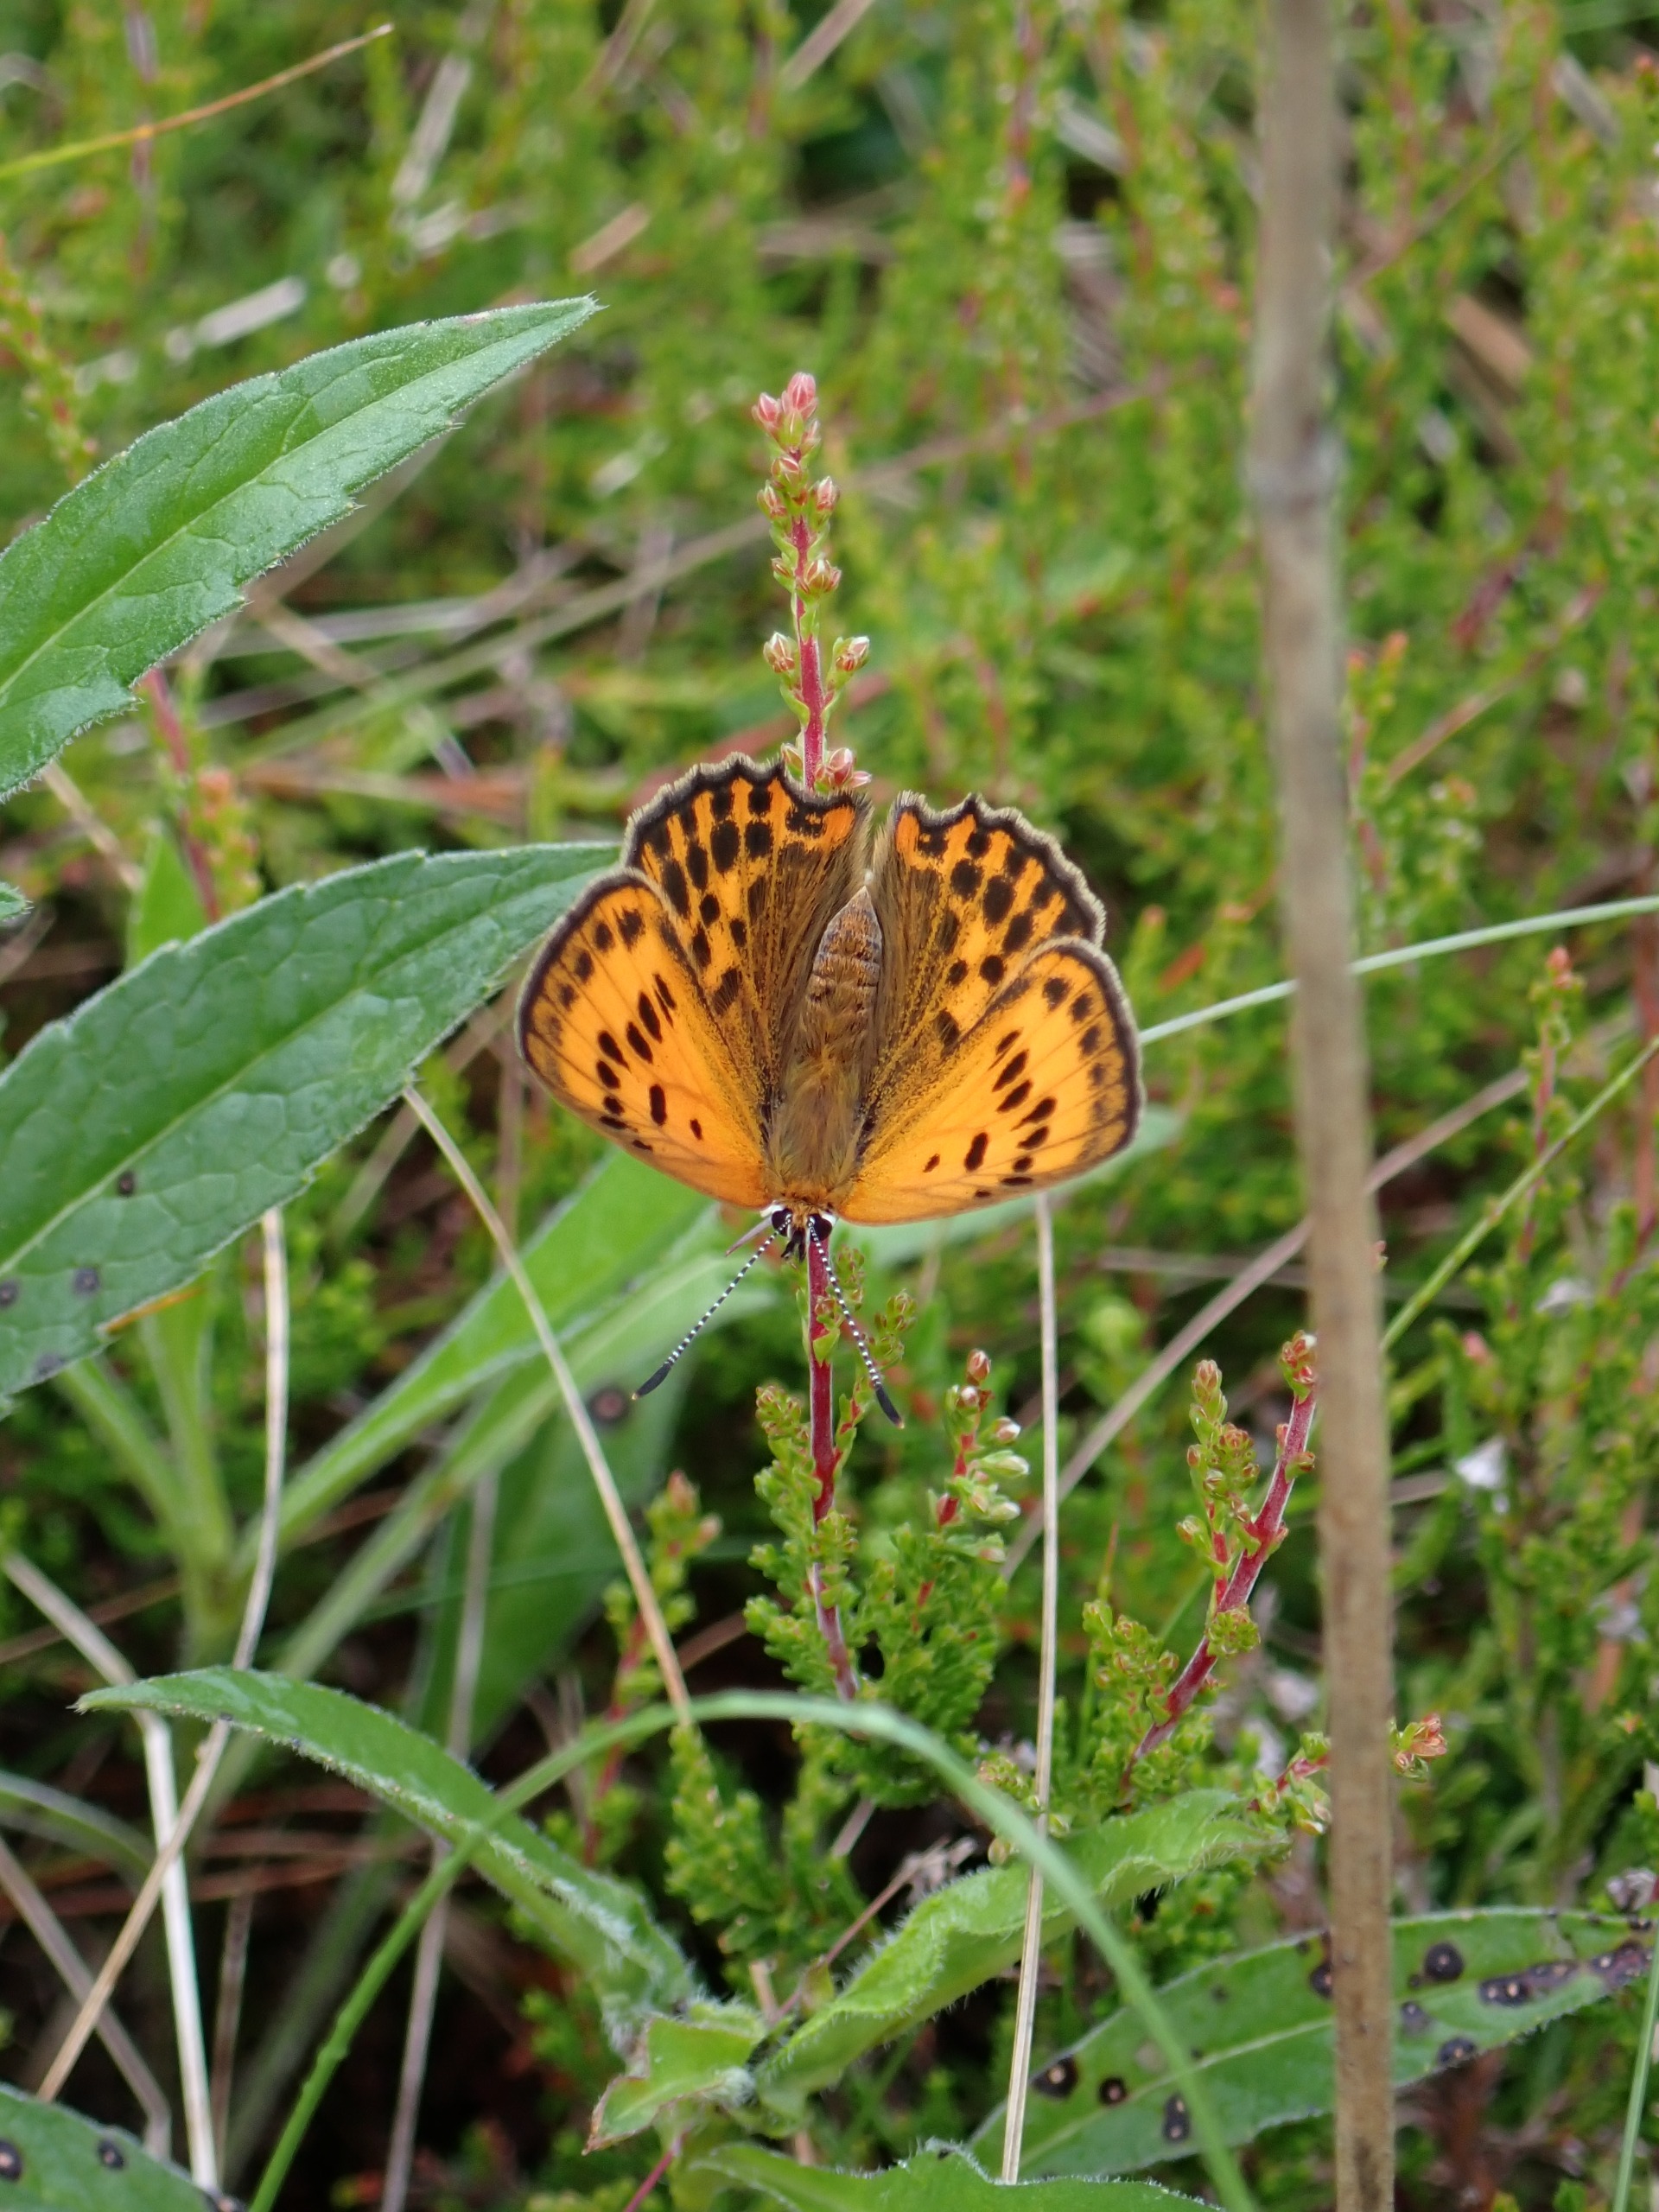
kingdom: Animalia
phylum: Arthropoda
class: Insecta
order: Lepidoptera
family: Lycaenidae
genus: Lycaena
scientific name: Lycaena virgaureae
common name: Dukatsommerfugl
